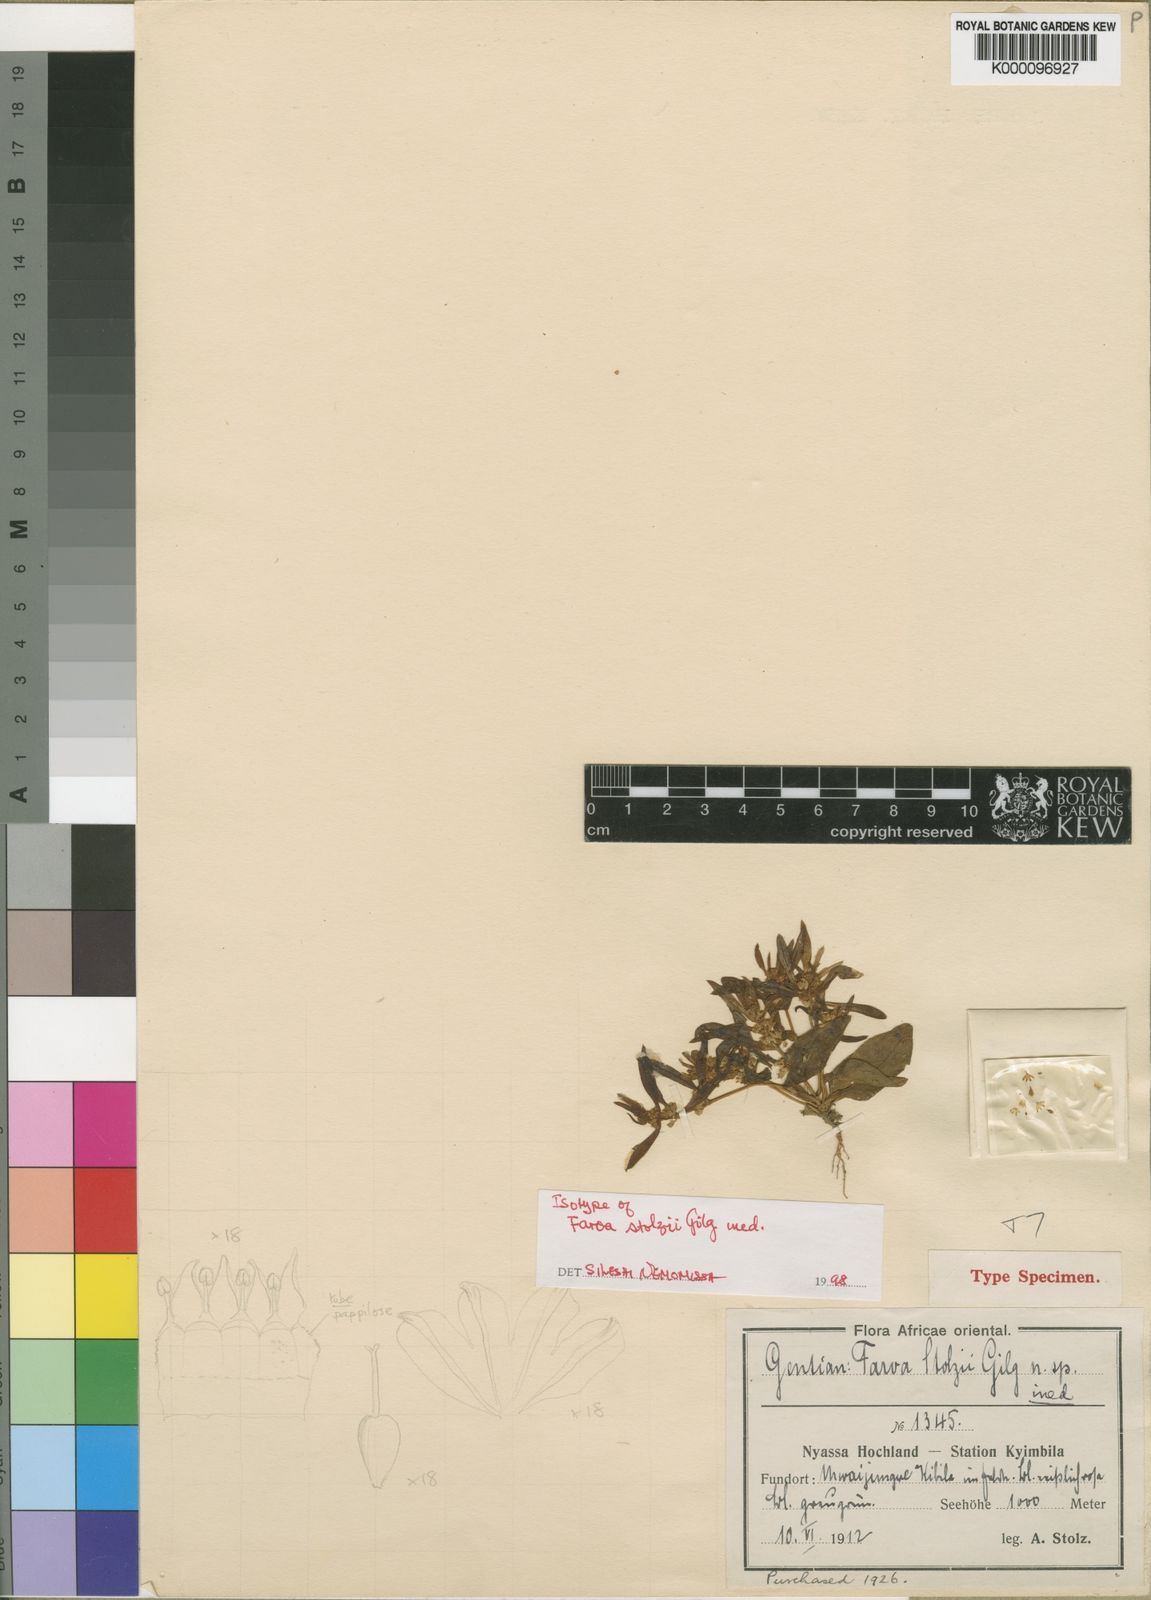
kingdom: Plantae
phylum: Tracheophyta
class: Magnoliopsida
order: Gentianales
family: Gentianaceae
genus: Faroa
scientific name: Faroa pusilla
